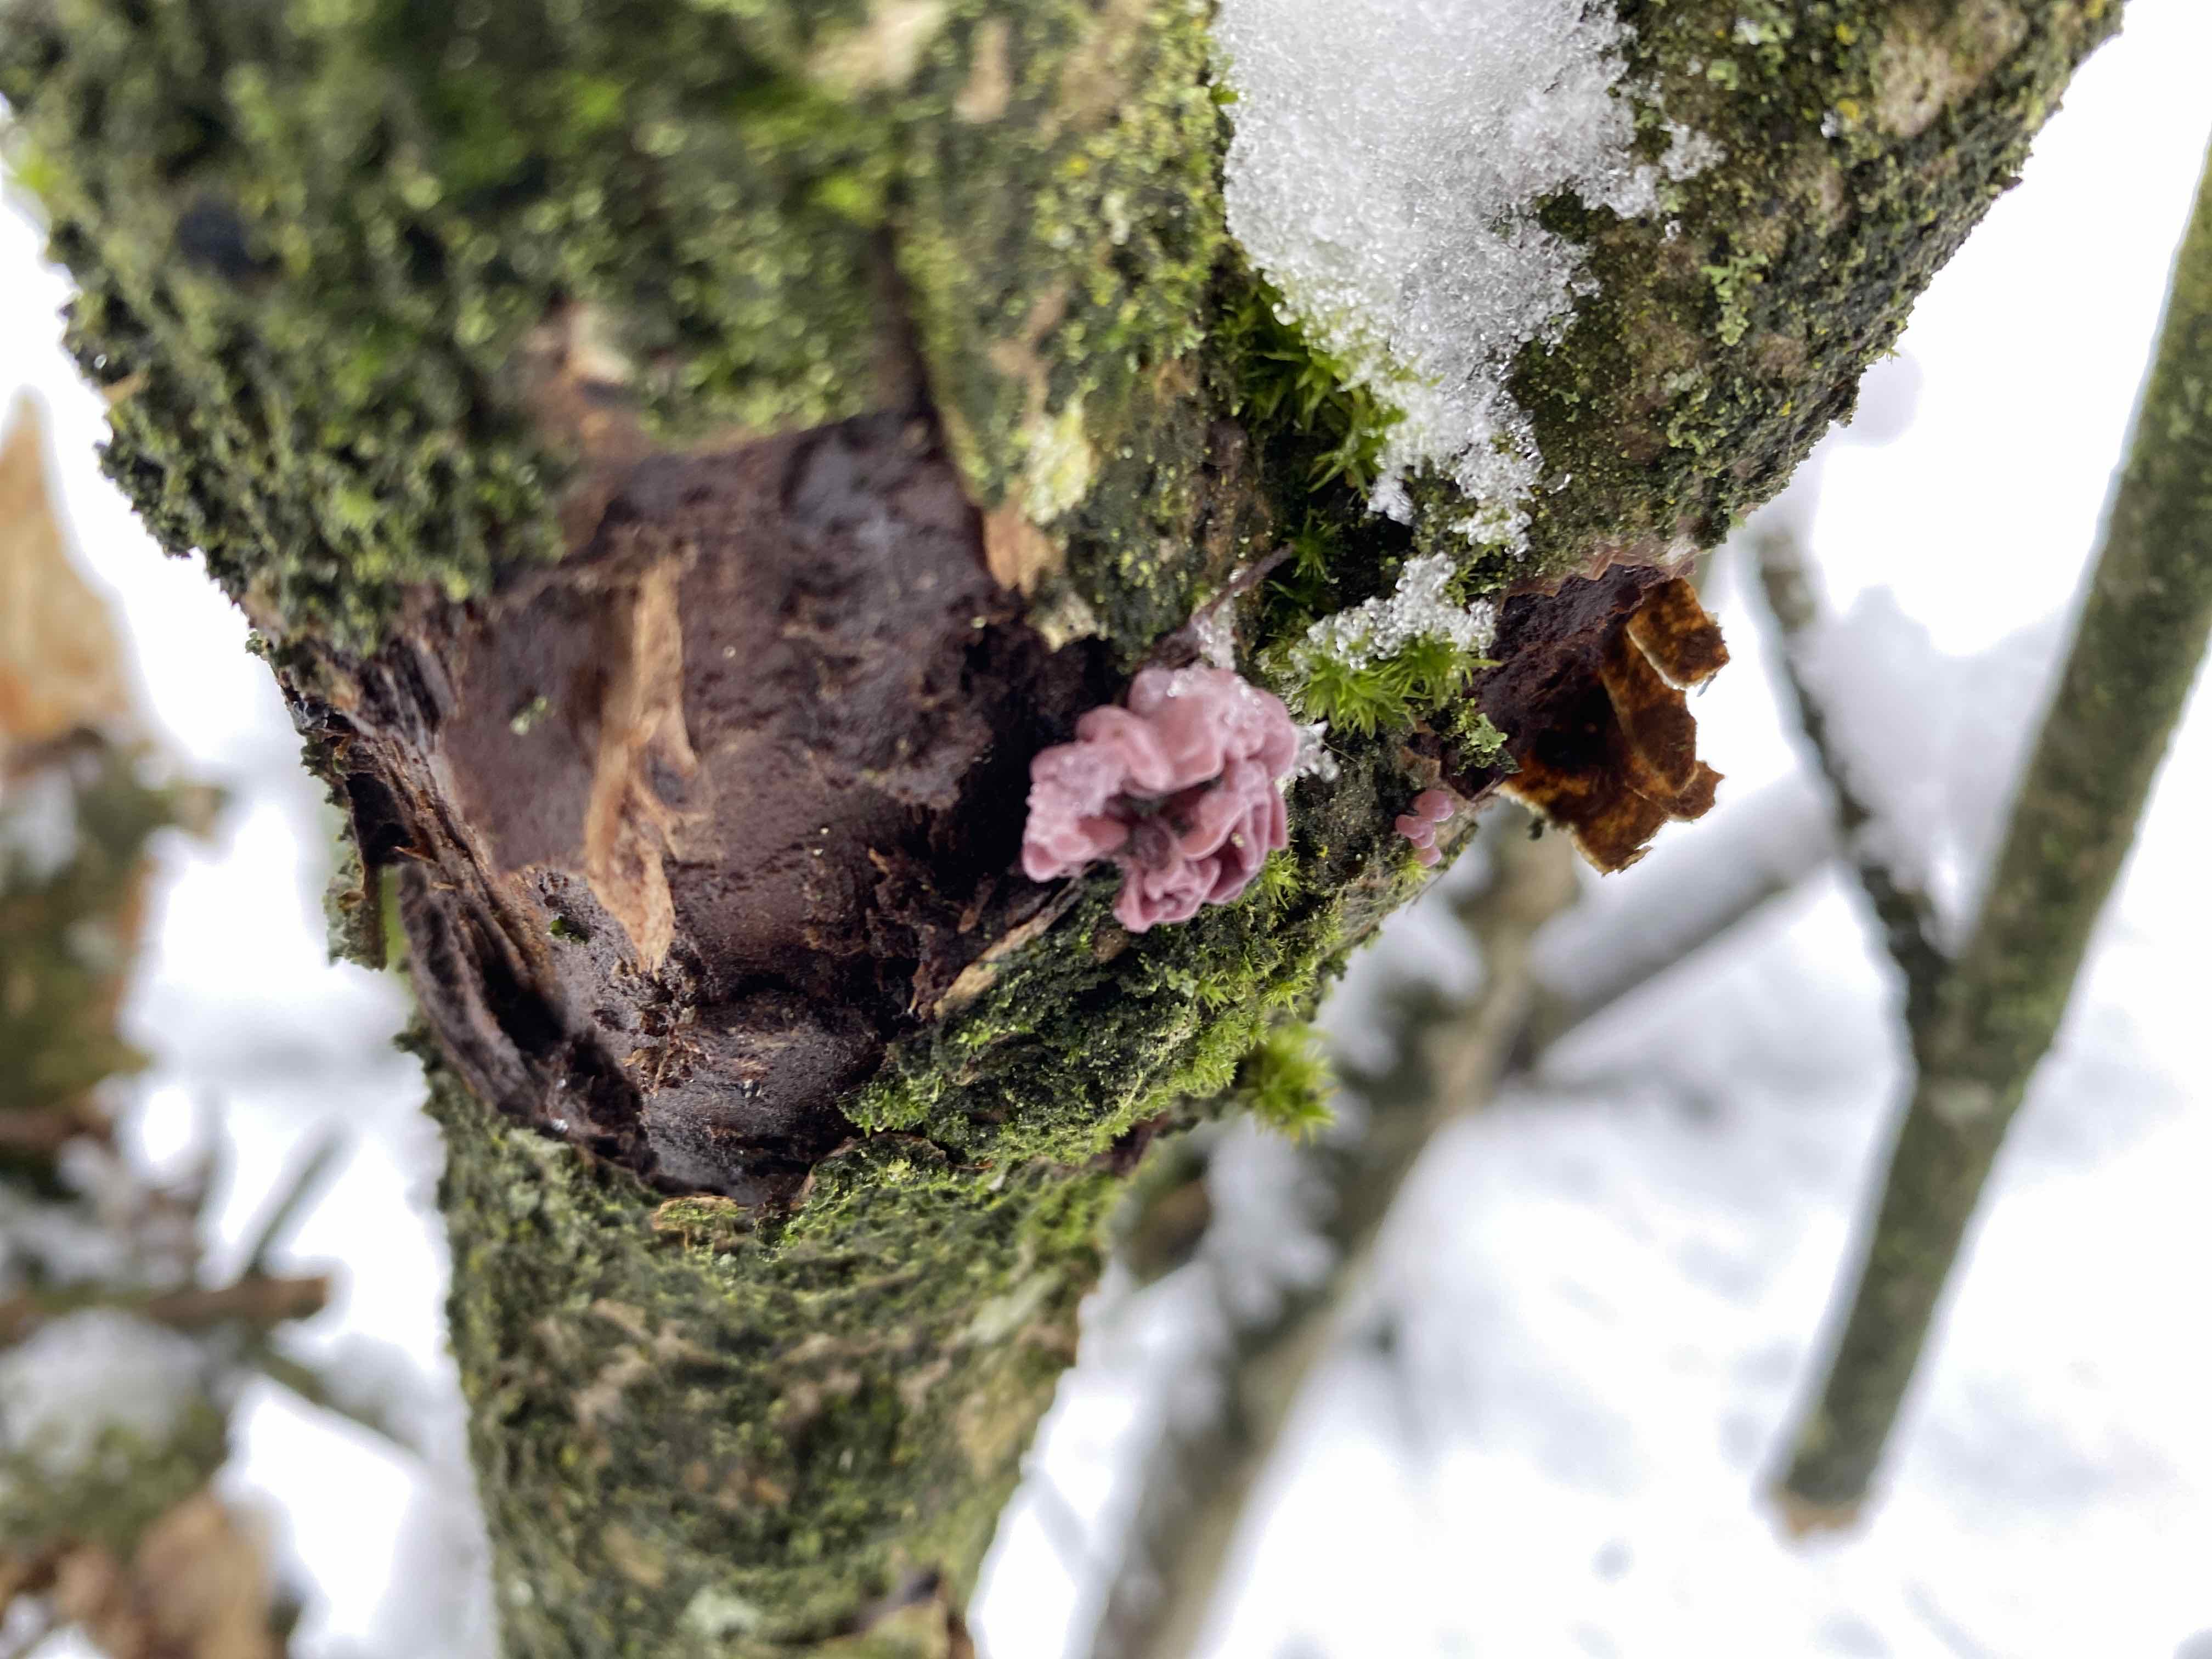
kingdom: Fungi
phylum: Ascomycota
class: Leotiomycetes
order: Helotiales
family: Gelatinodiscaceae
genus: Ascocoryne
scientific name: Ascocoryne sarcoides
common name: rødlilla sejskive
